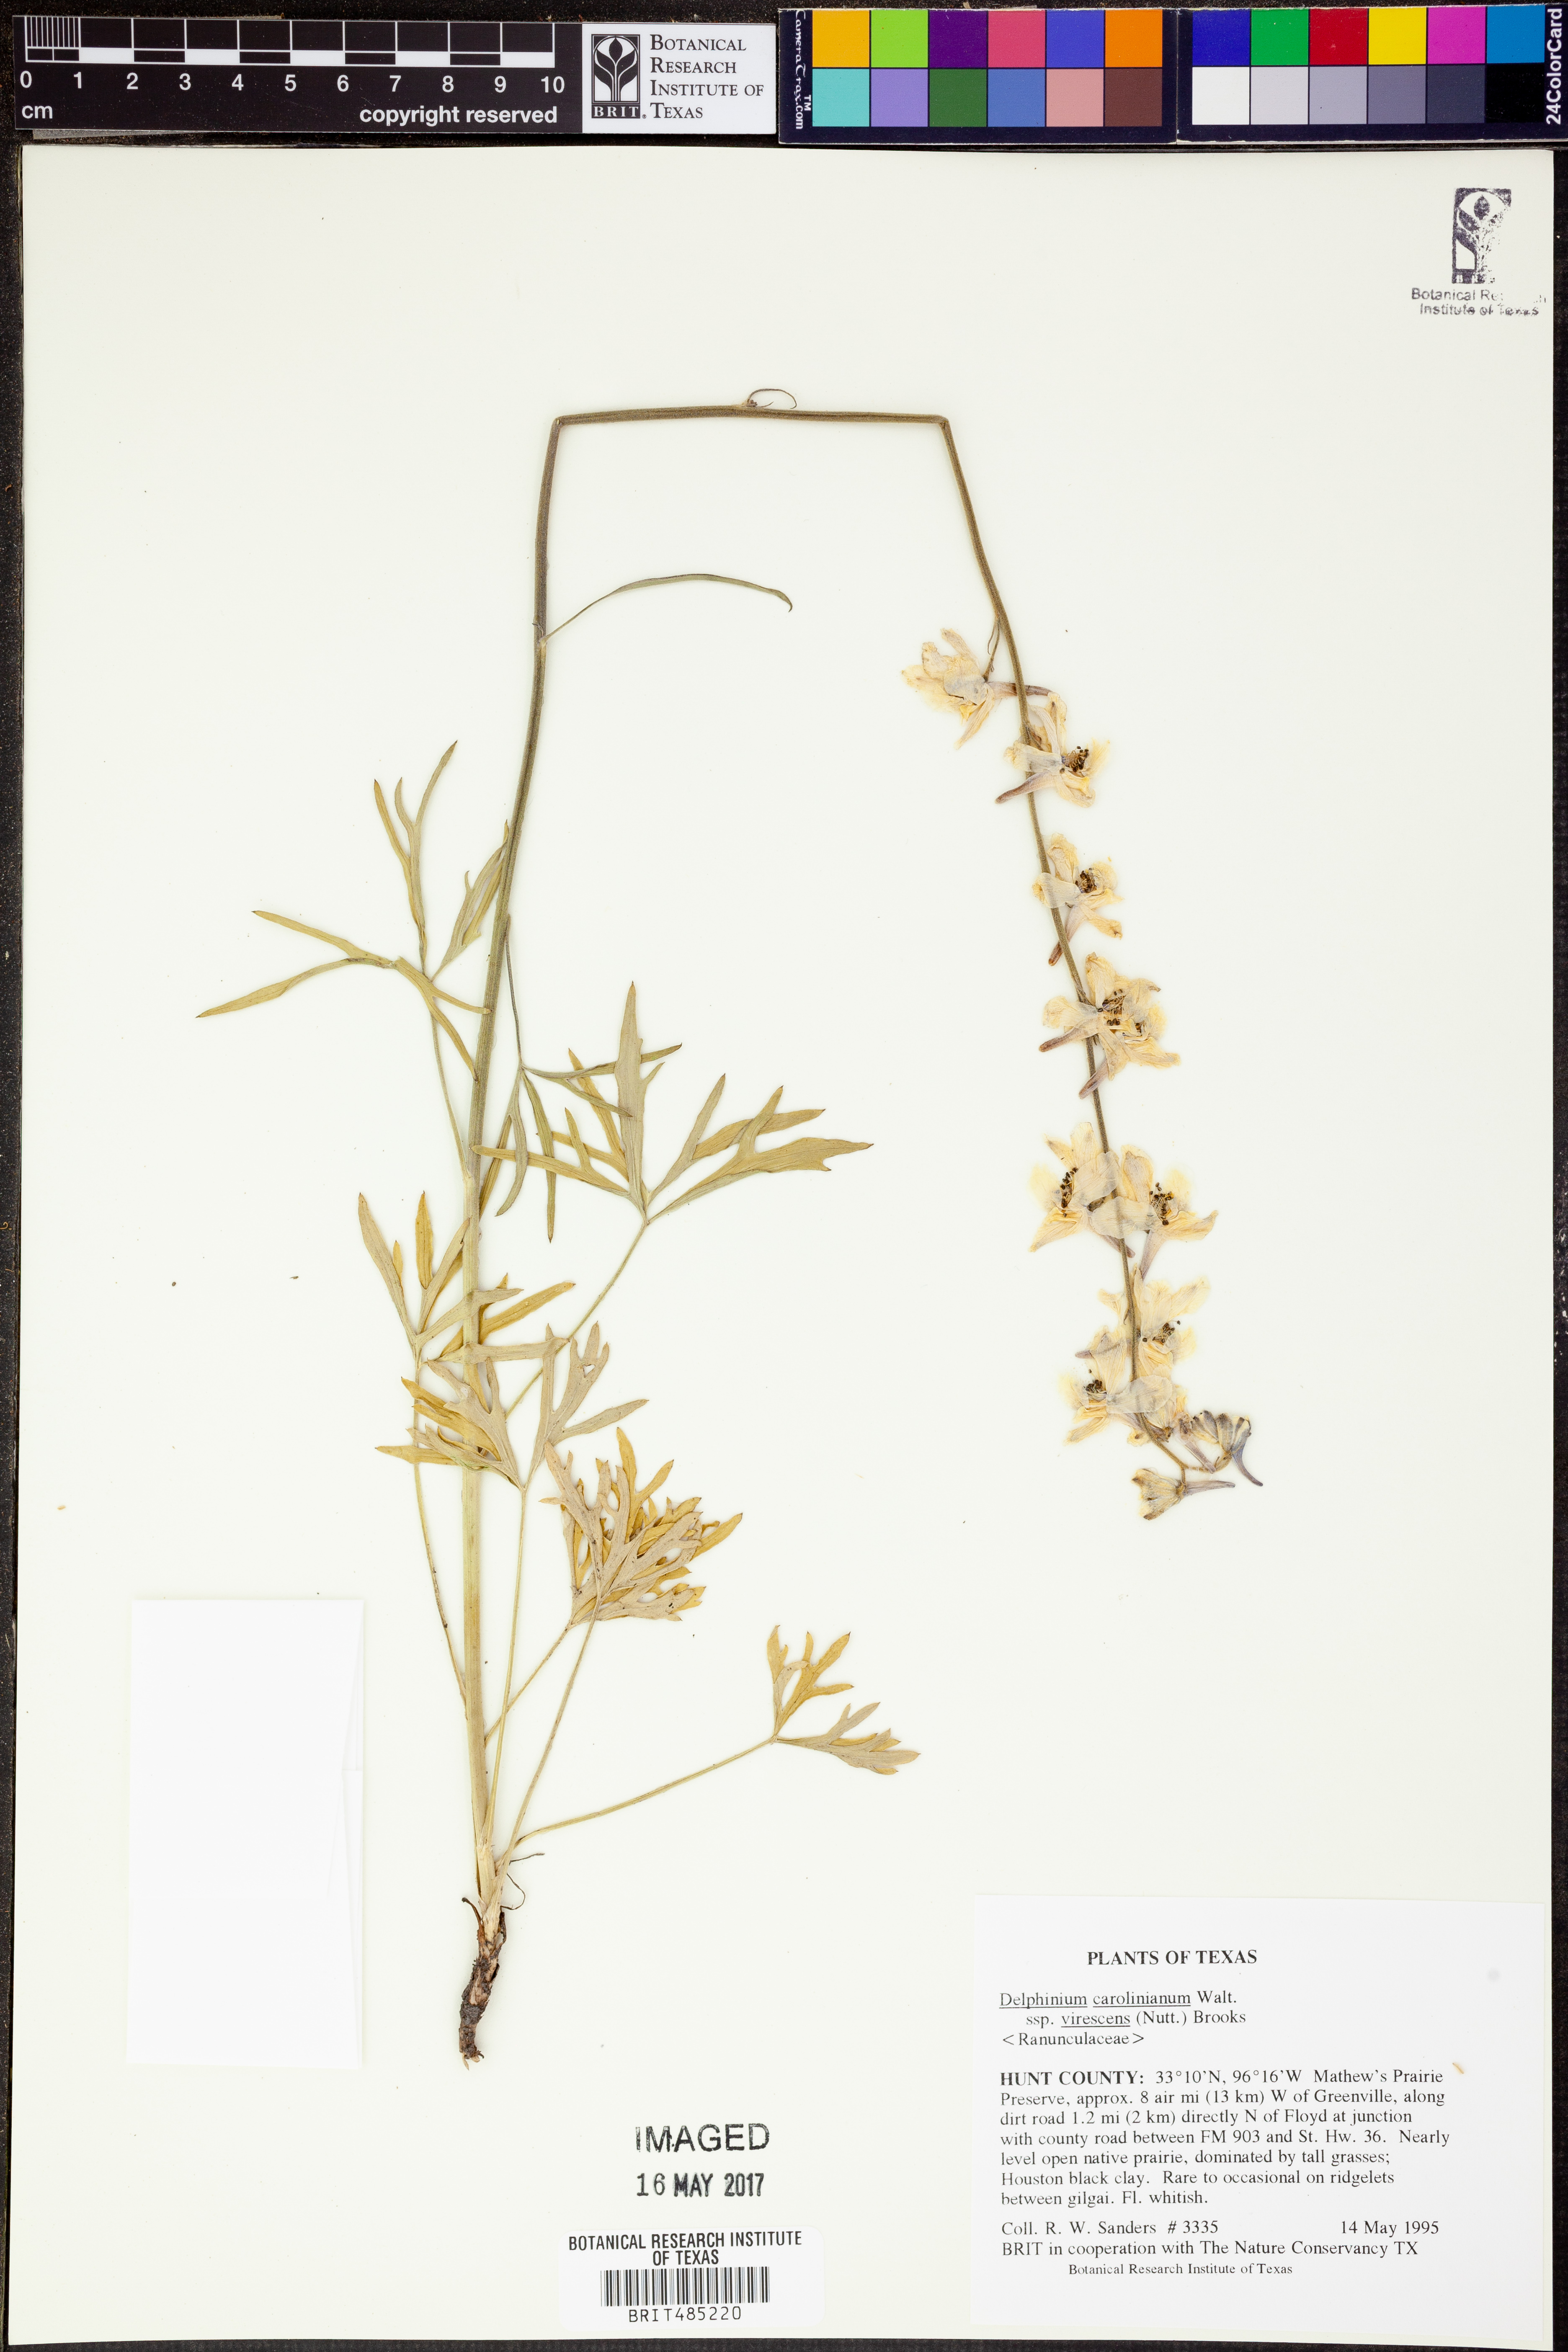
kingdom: Plantae
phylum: Tracheophyta
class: Magnoliopsida
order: Ranunculales
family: Ranunculaceae
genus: Delphinium
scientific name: Delphinium carolinianum
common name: Carolina larkspur
